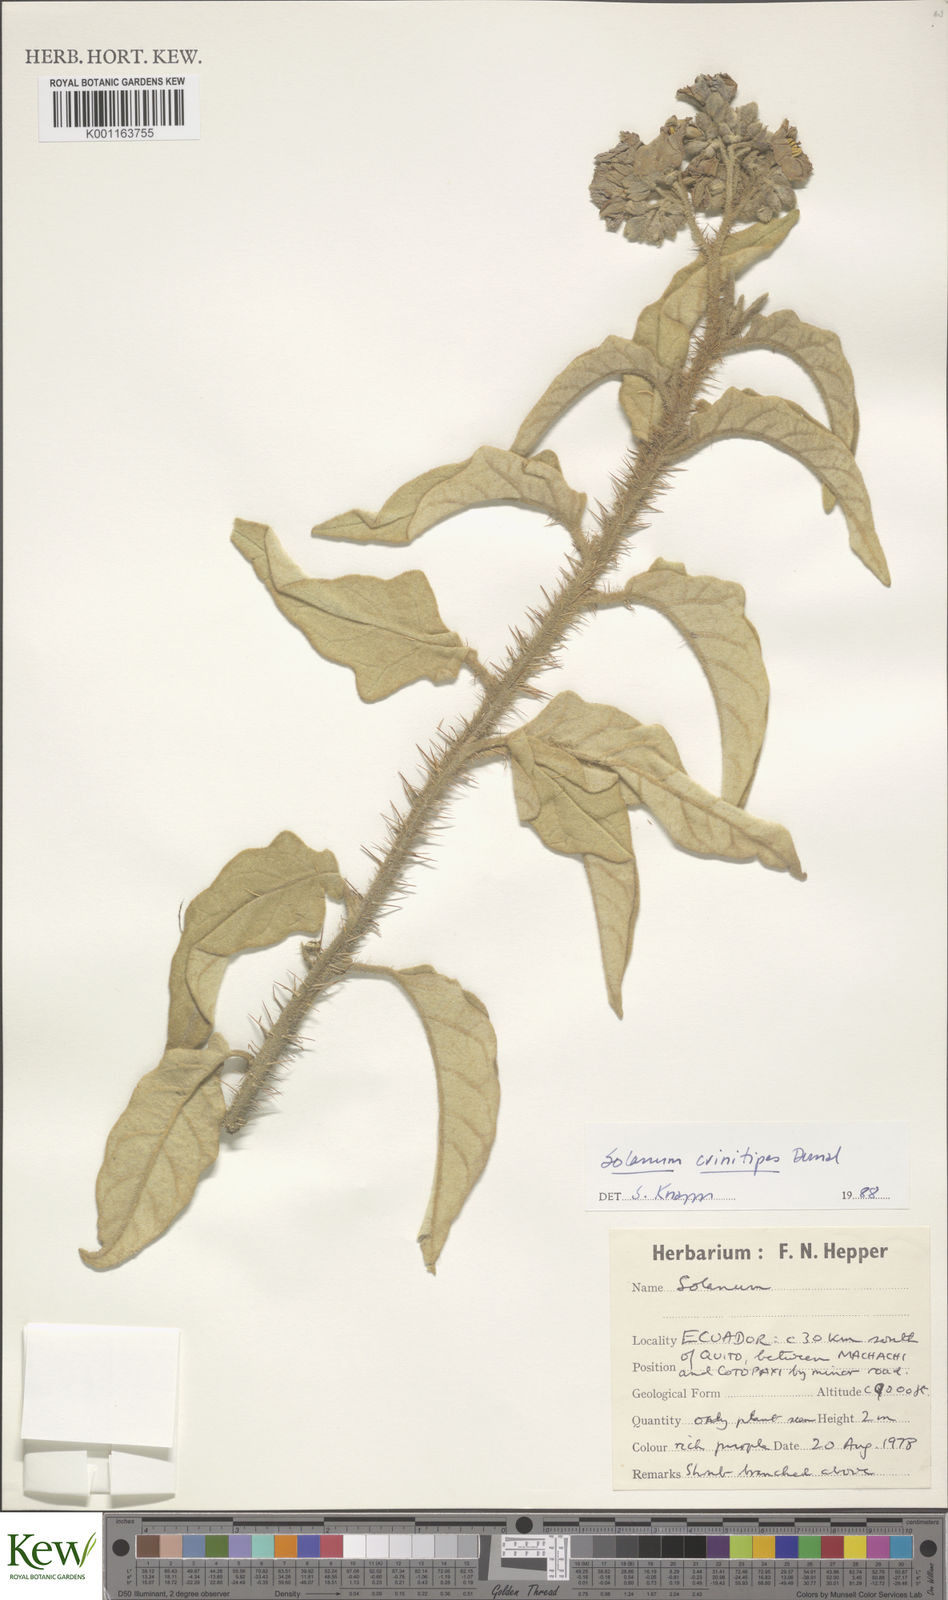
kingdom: Plantae
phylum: Tracheophyta
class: Magnoliopsida
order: Solanales
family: Solanaceae
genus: Solanum
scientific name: Solanum crinitipes
